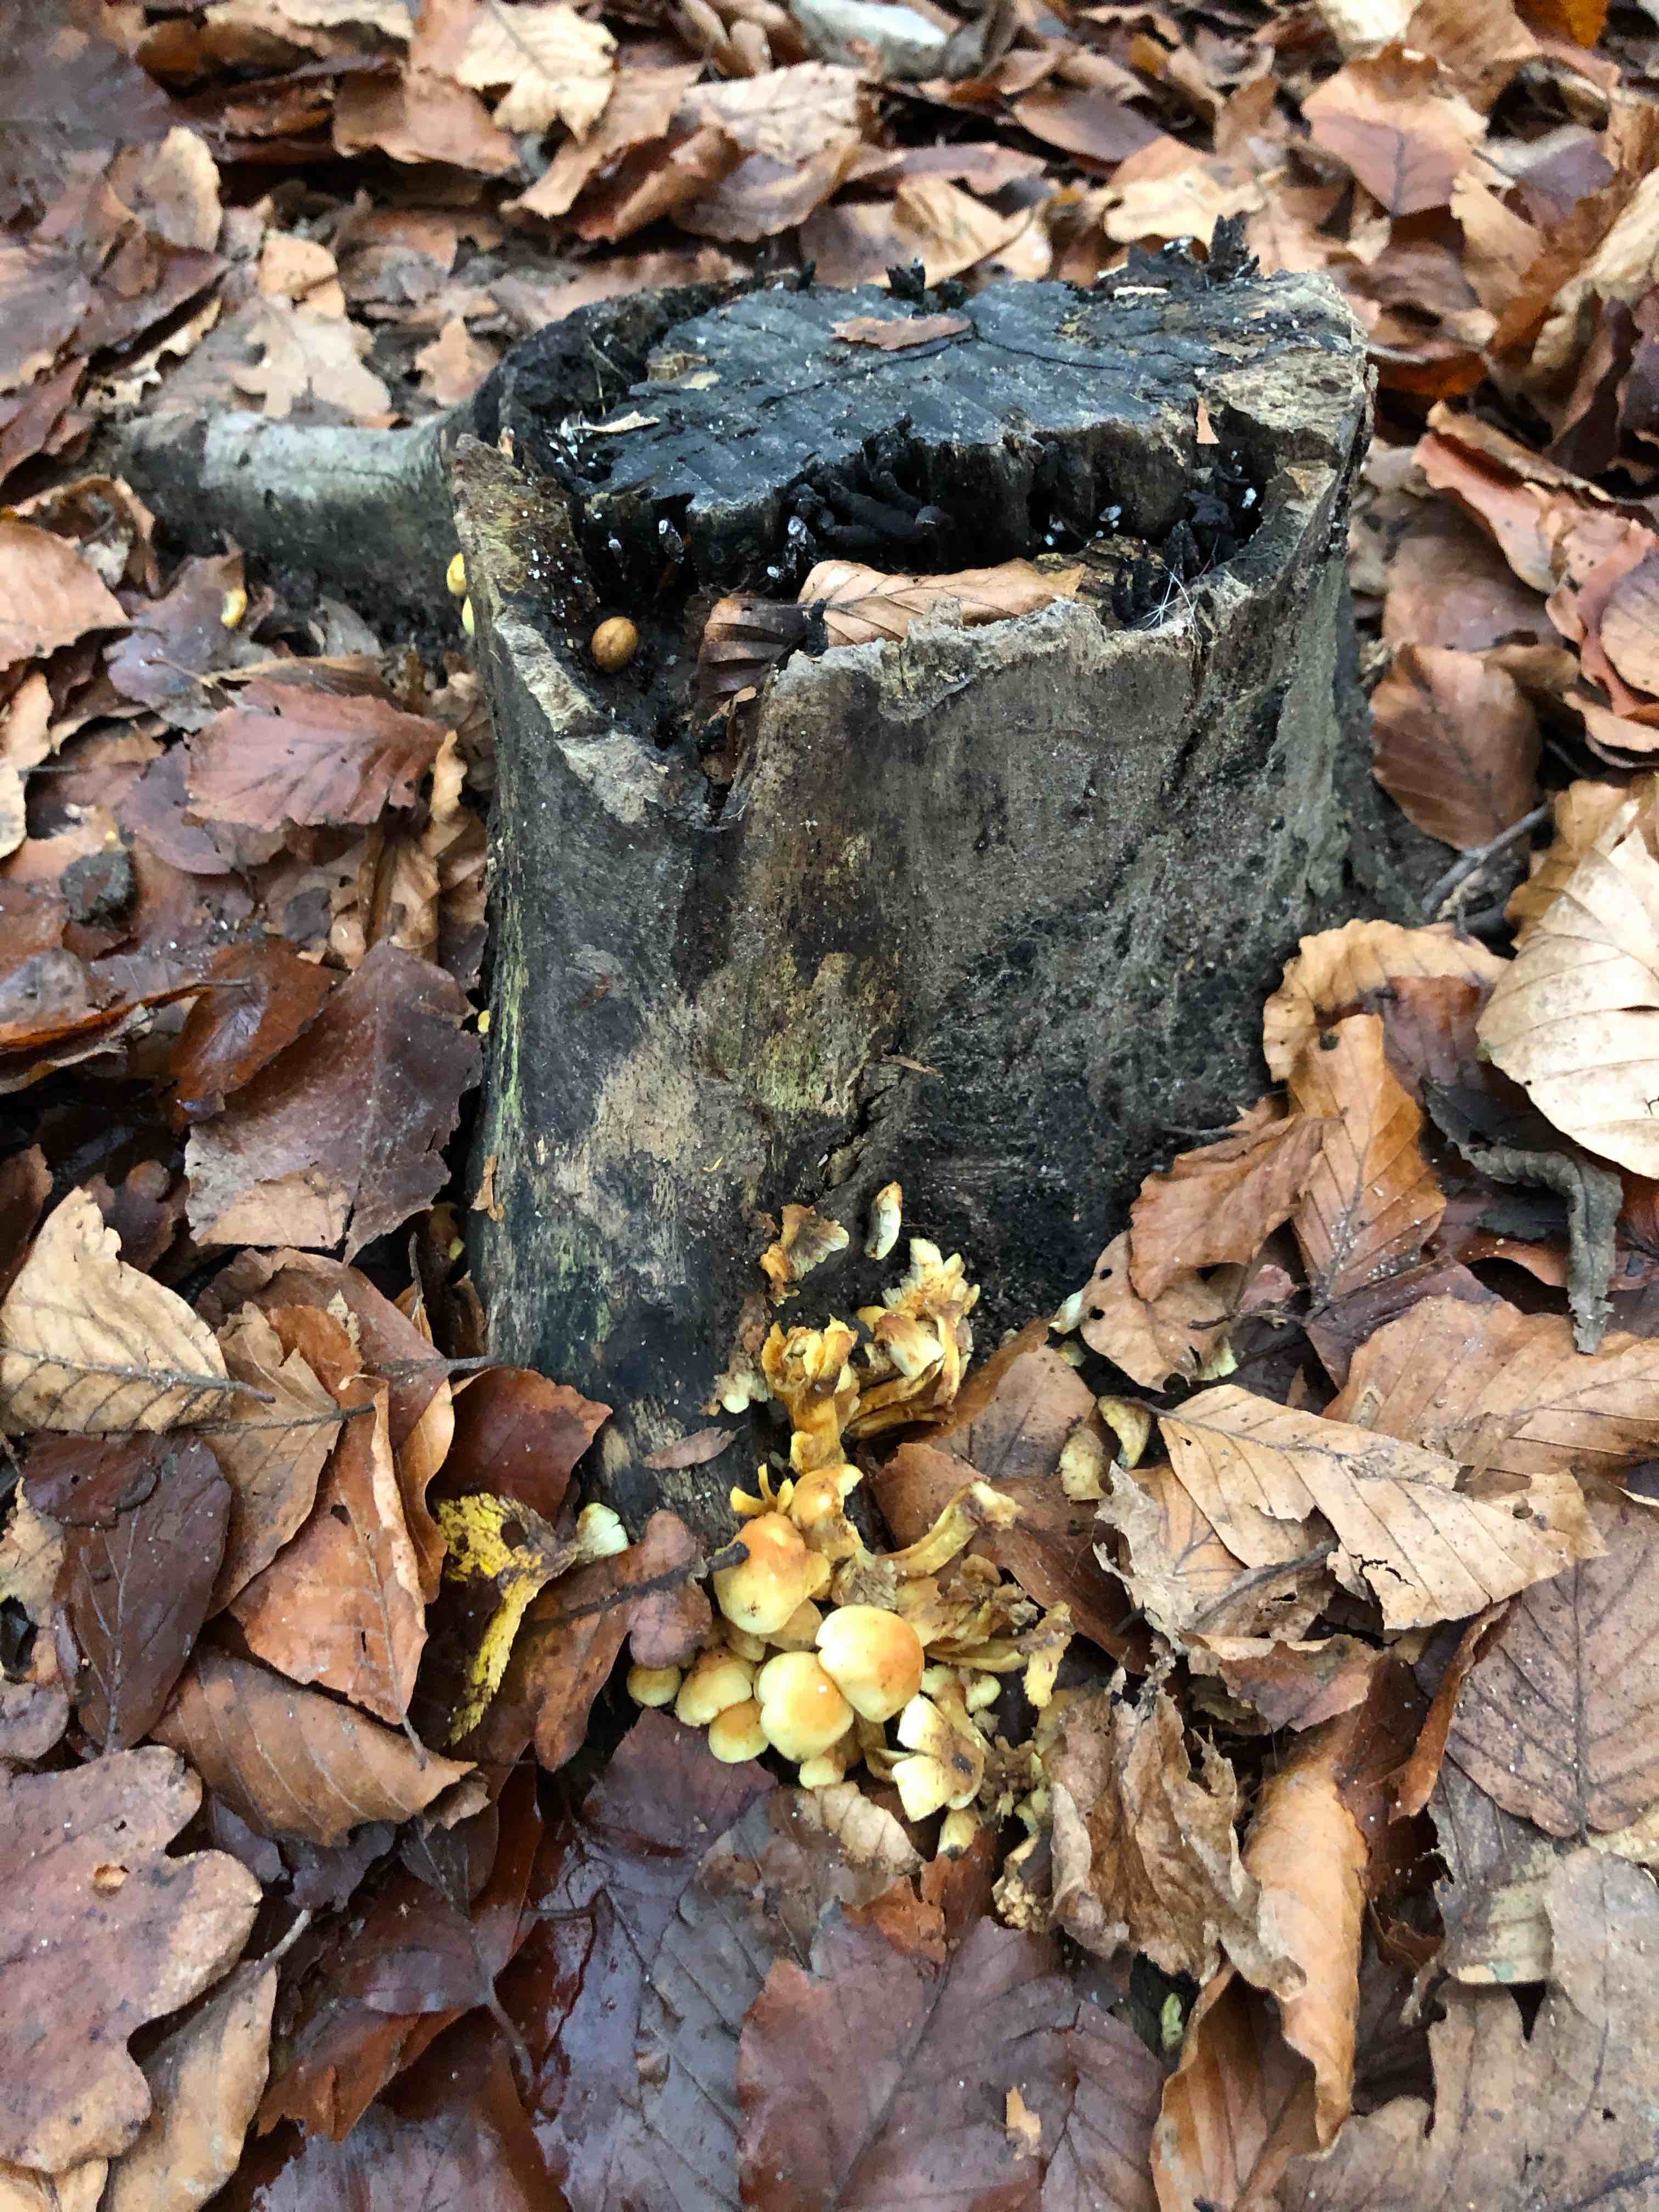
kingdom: Fungi
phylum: Basidiomycota
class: Agaricomycetes
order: Agaricales
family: Strophariaceae
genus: Hypholoma
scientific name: Hypholoma fasciculare
